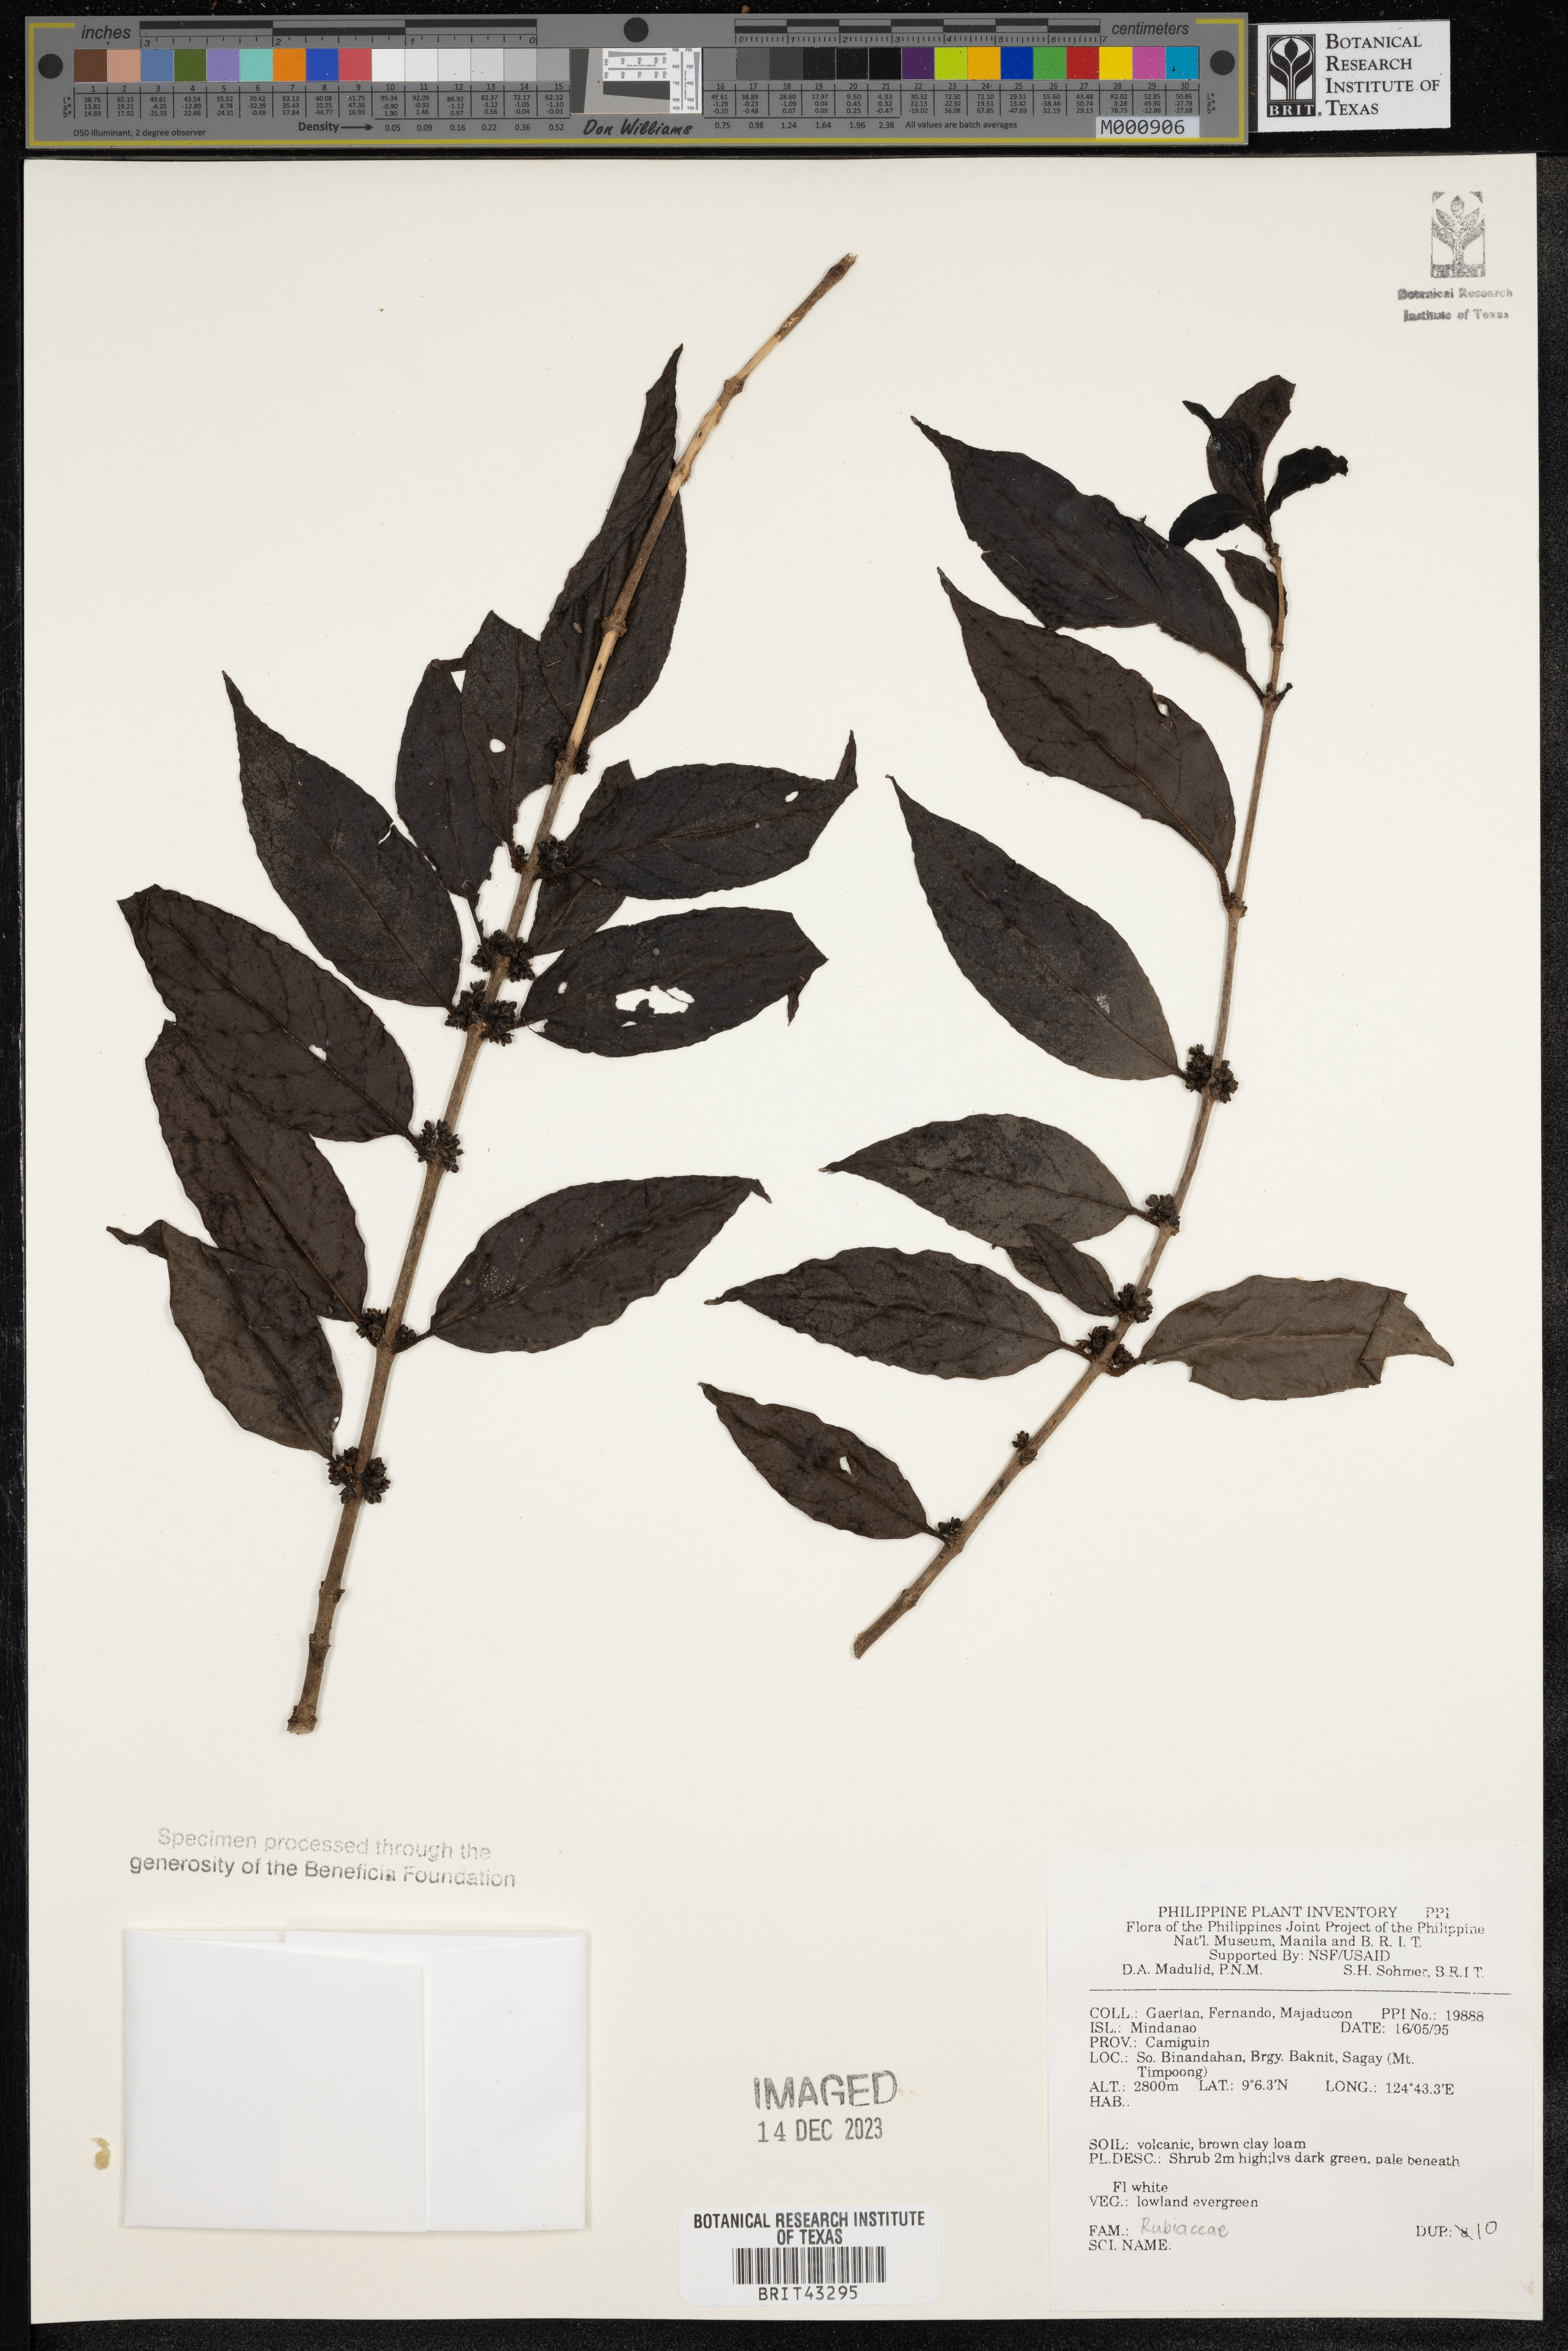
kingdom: Plantae
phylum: Tracheophyta
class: Magnoliopsida
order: Gentianales
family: Rubiaceae
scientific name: Rubiaceae
